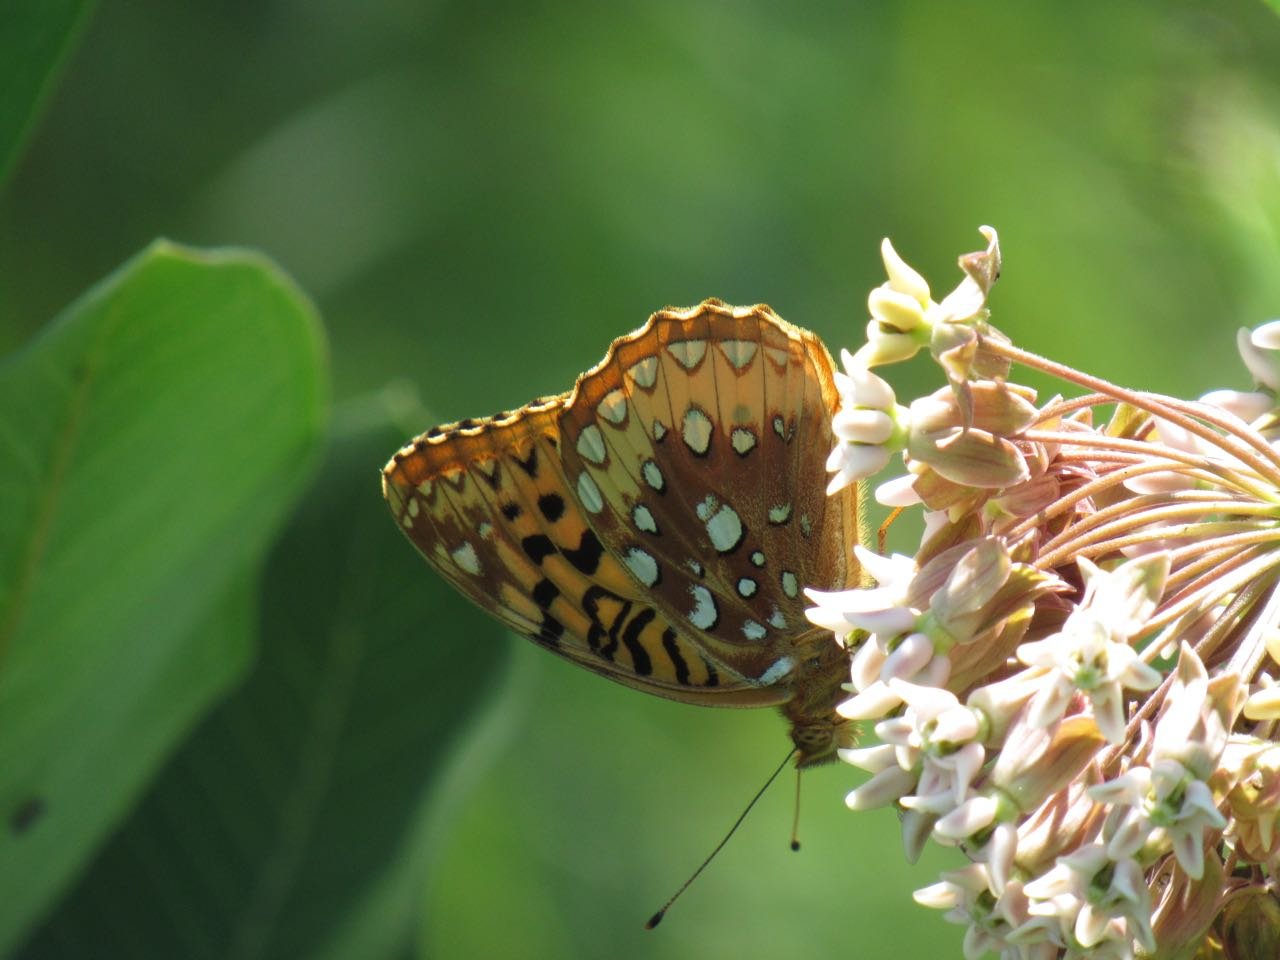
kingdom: Animalia
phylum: Arthropoda
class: Insecta
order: Lepidoptera
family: Nymphalidae
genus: Speyeria
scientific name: Speyeria cybele
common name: Great Spangled Fritillary
